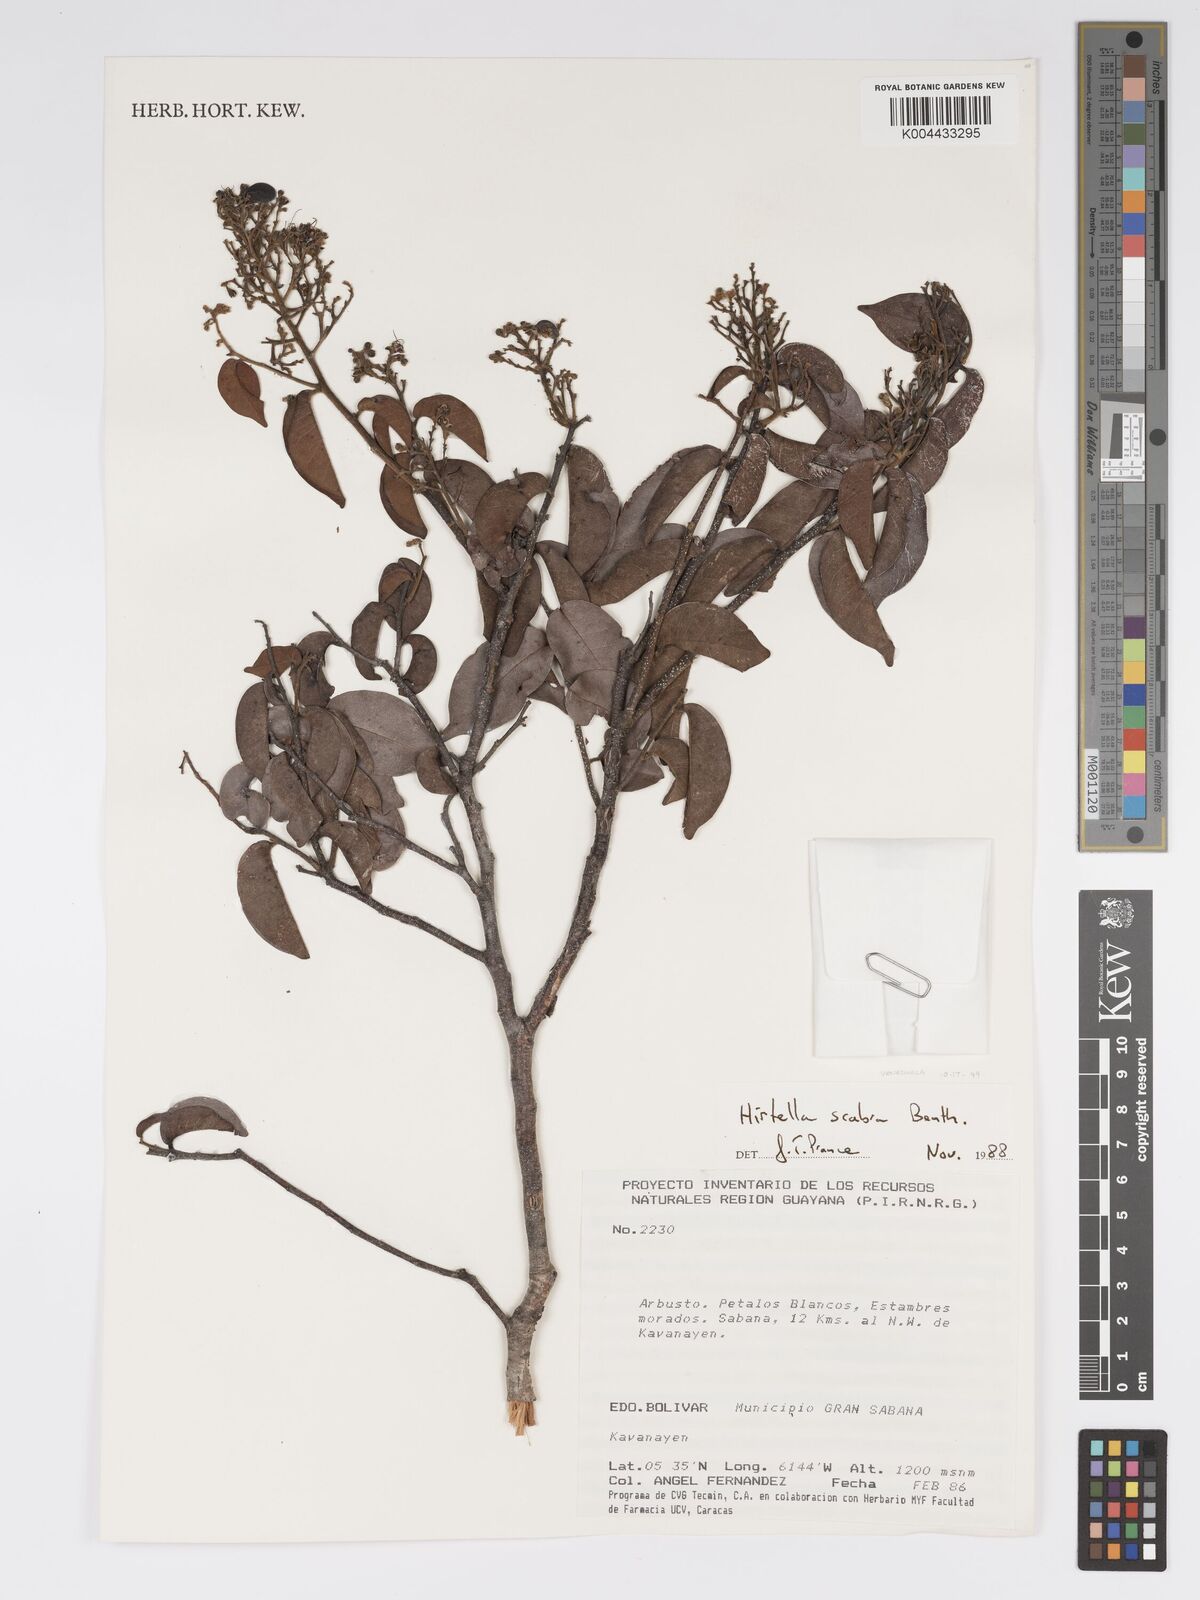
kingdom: Plantae
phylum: Tracheophyta
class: Magnoliopsida
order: Malpighiales
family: Chrysobalanaceae
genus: Hirtella
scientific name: Hirtella scabra
